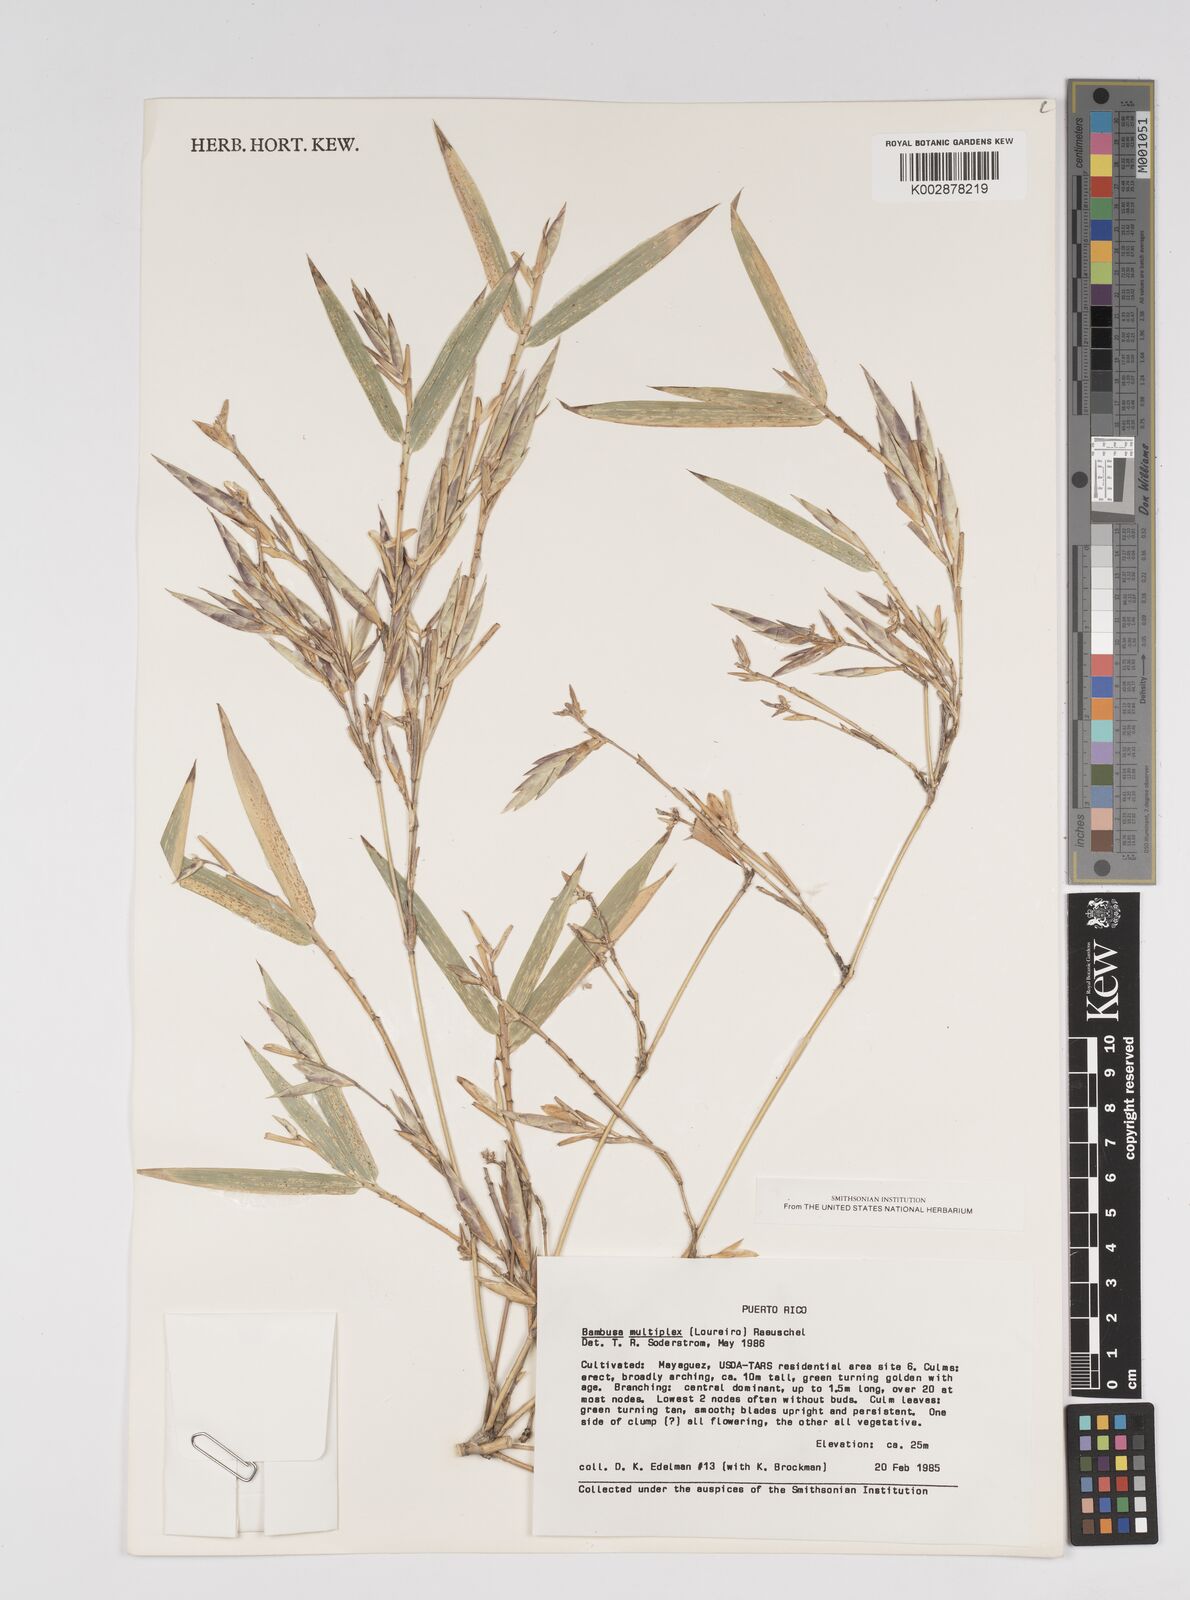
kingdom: Plantae
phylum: Tracheophyta
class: Liliopsida
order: Poales
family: Poaceae
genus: Bambusa
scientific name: Bambusa multiplex
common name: Hedge bamboo
